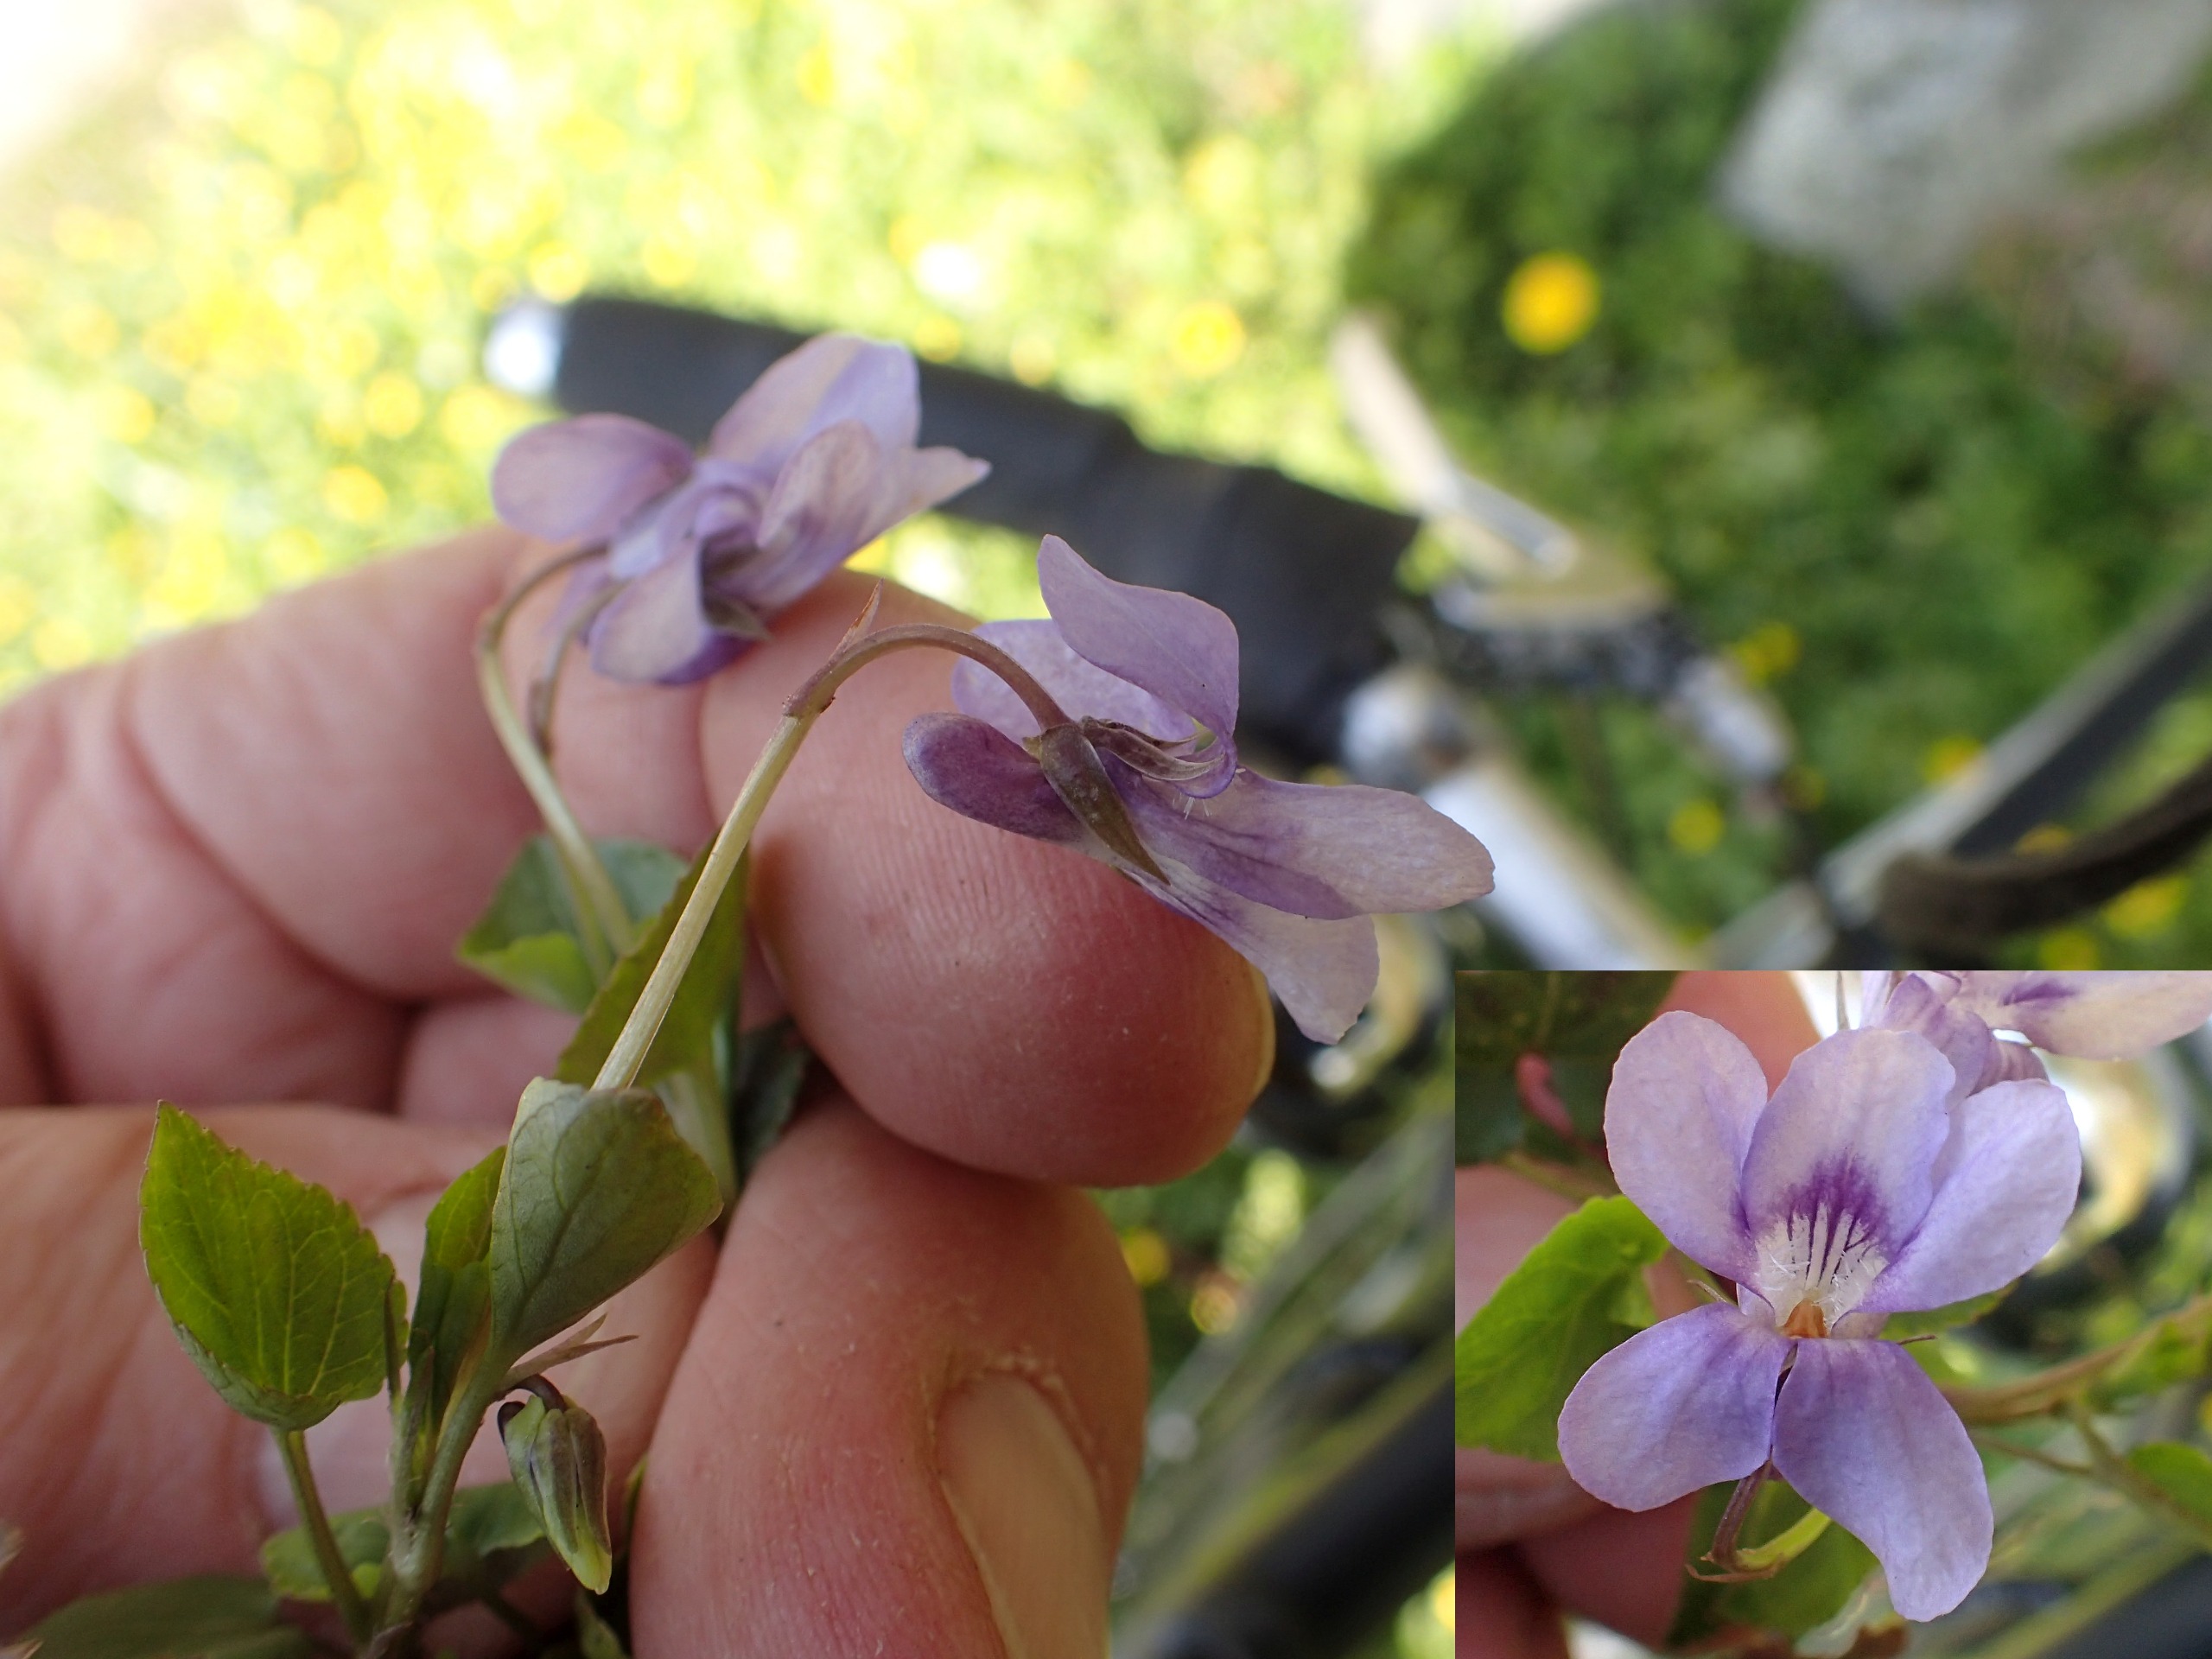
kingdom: Plantae
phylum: Tracheophyta
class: Magnoliopsida
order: Malpighiales
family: Violaceae
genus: Viola
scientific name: Viola reichenbachiana
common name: Skov-viol
